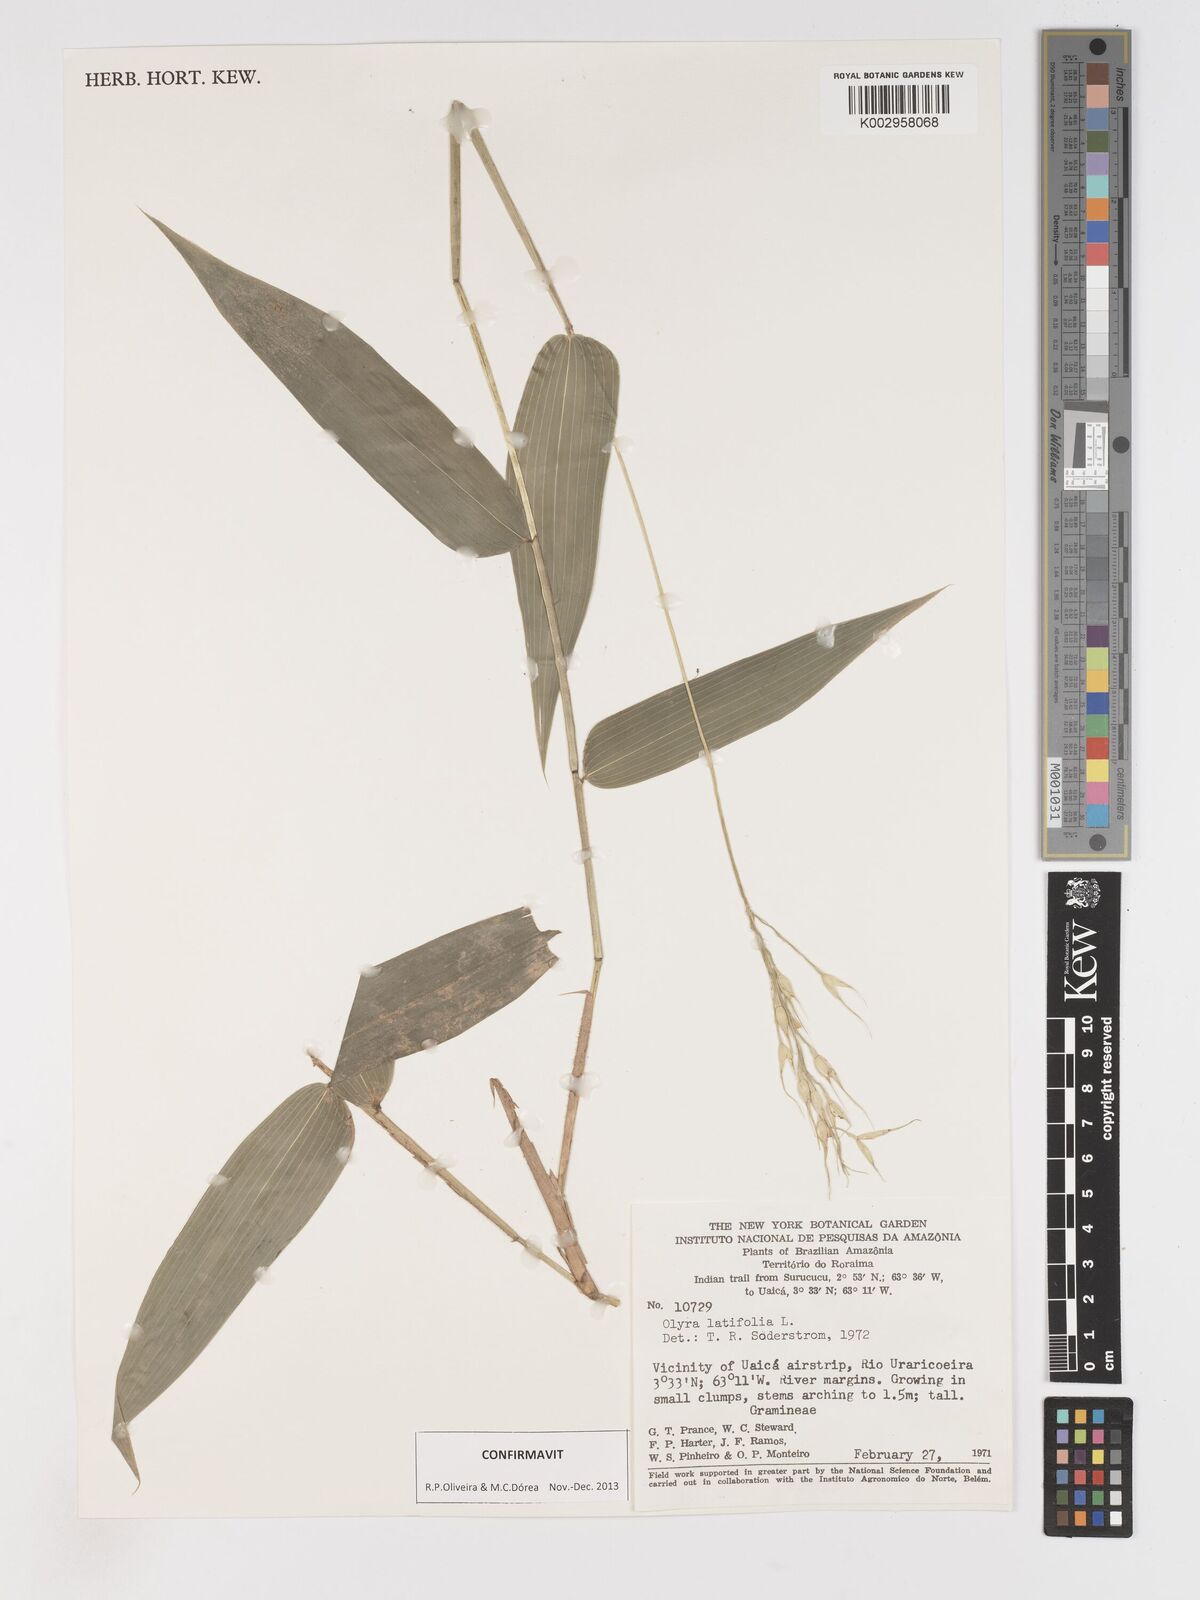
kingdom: Plantae
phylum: Tracheophyta
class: Liliopsida
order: Poales
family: Poaceae
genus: Olyra
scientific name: Olyra latifolia
